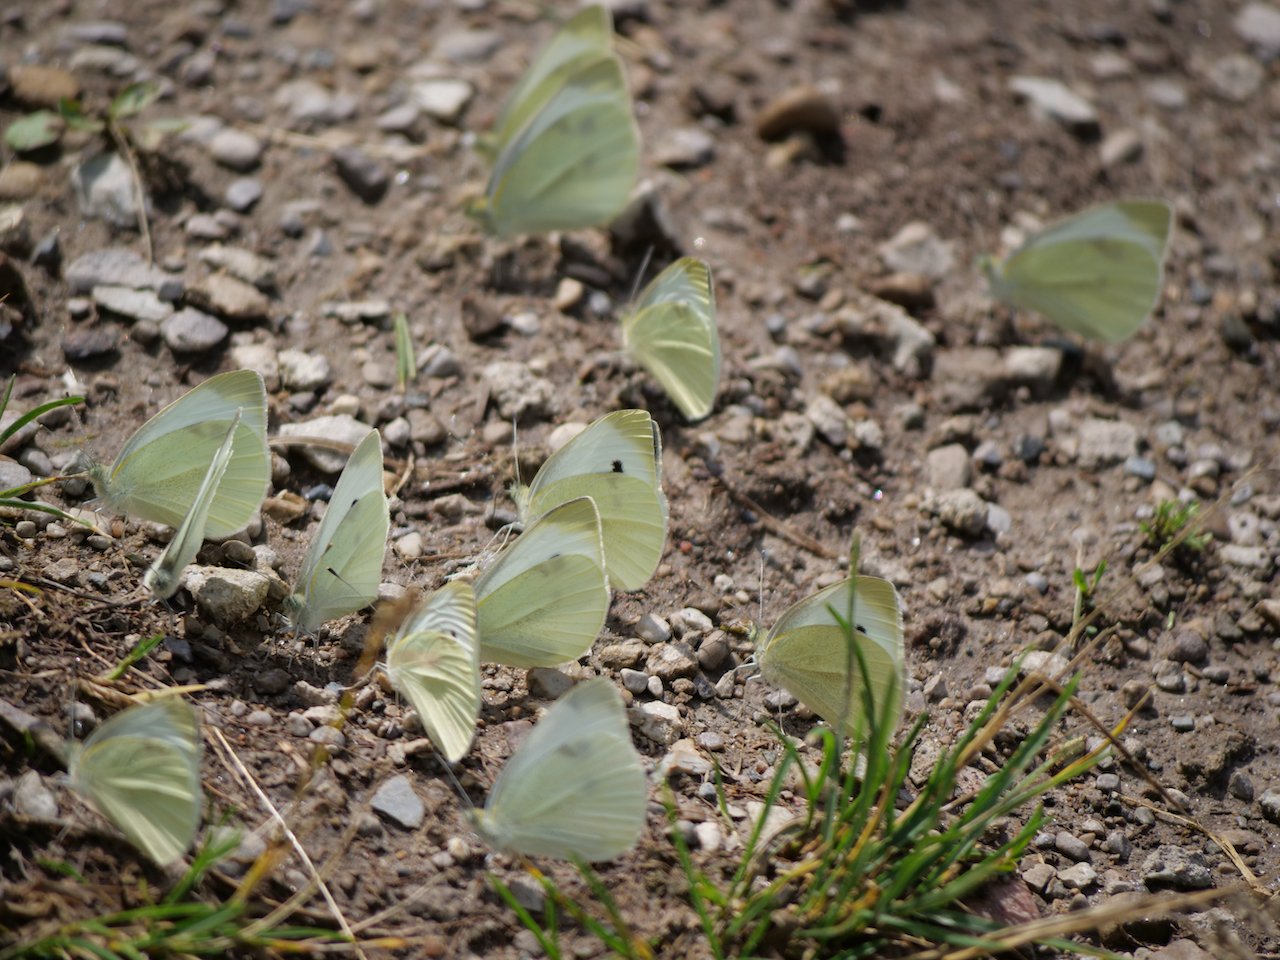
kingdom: Animalia
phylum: Arthropoda
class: Insecta
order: Lepidoptera
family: Pieridae
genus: Pieris
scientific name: Pieris rapae
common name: Cabbage White
